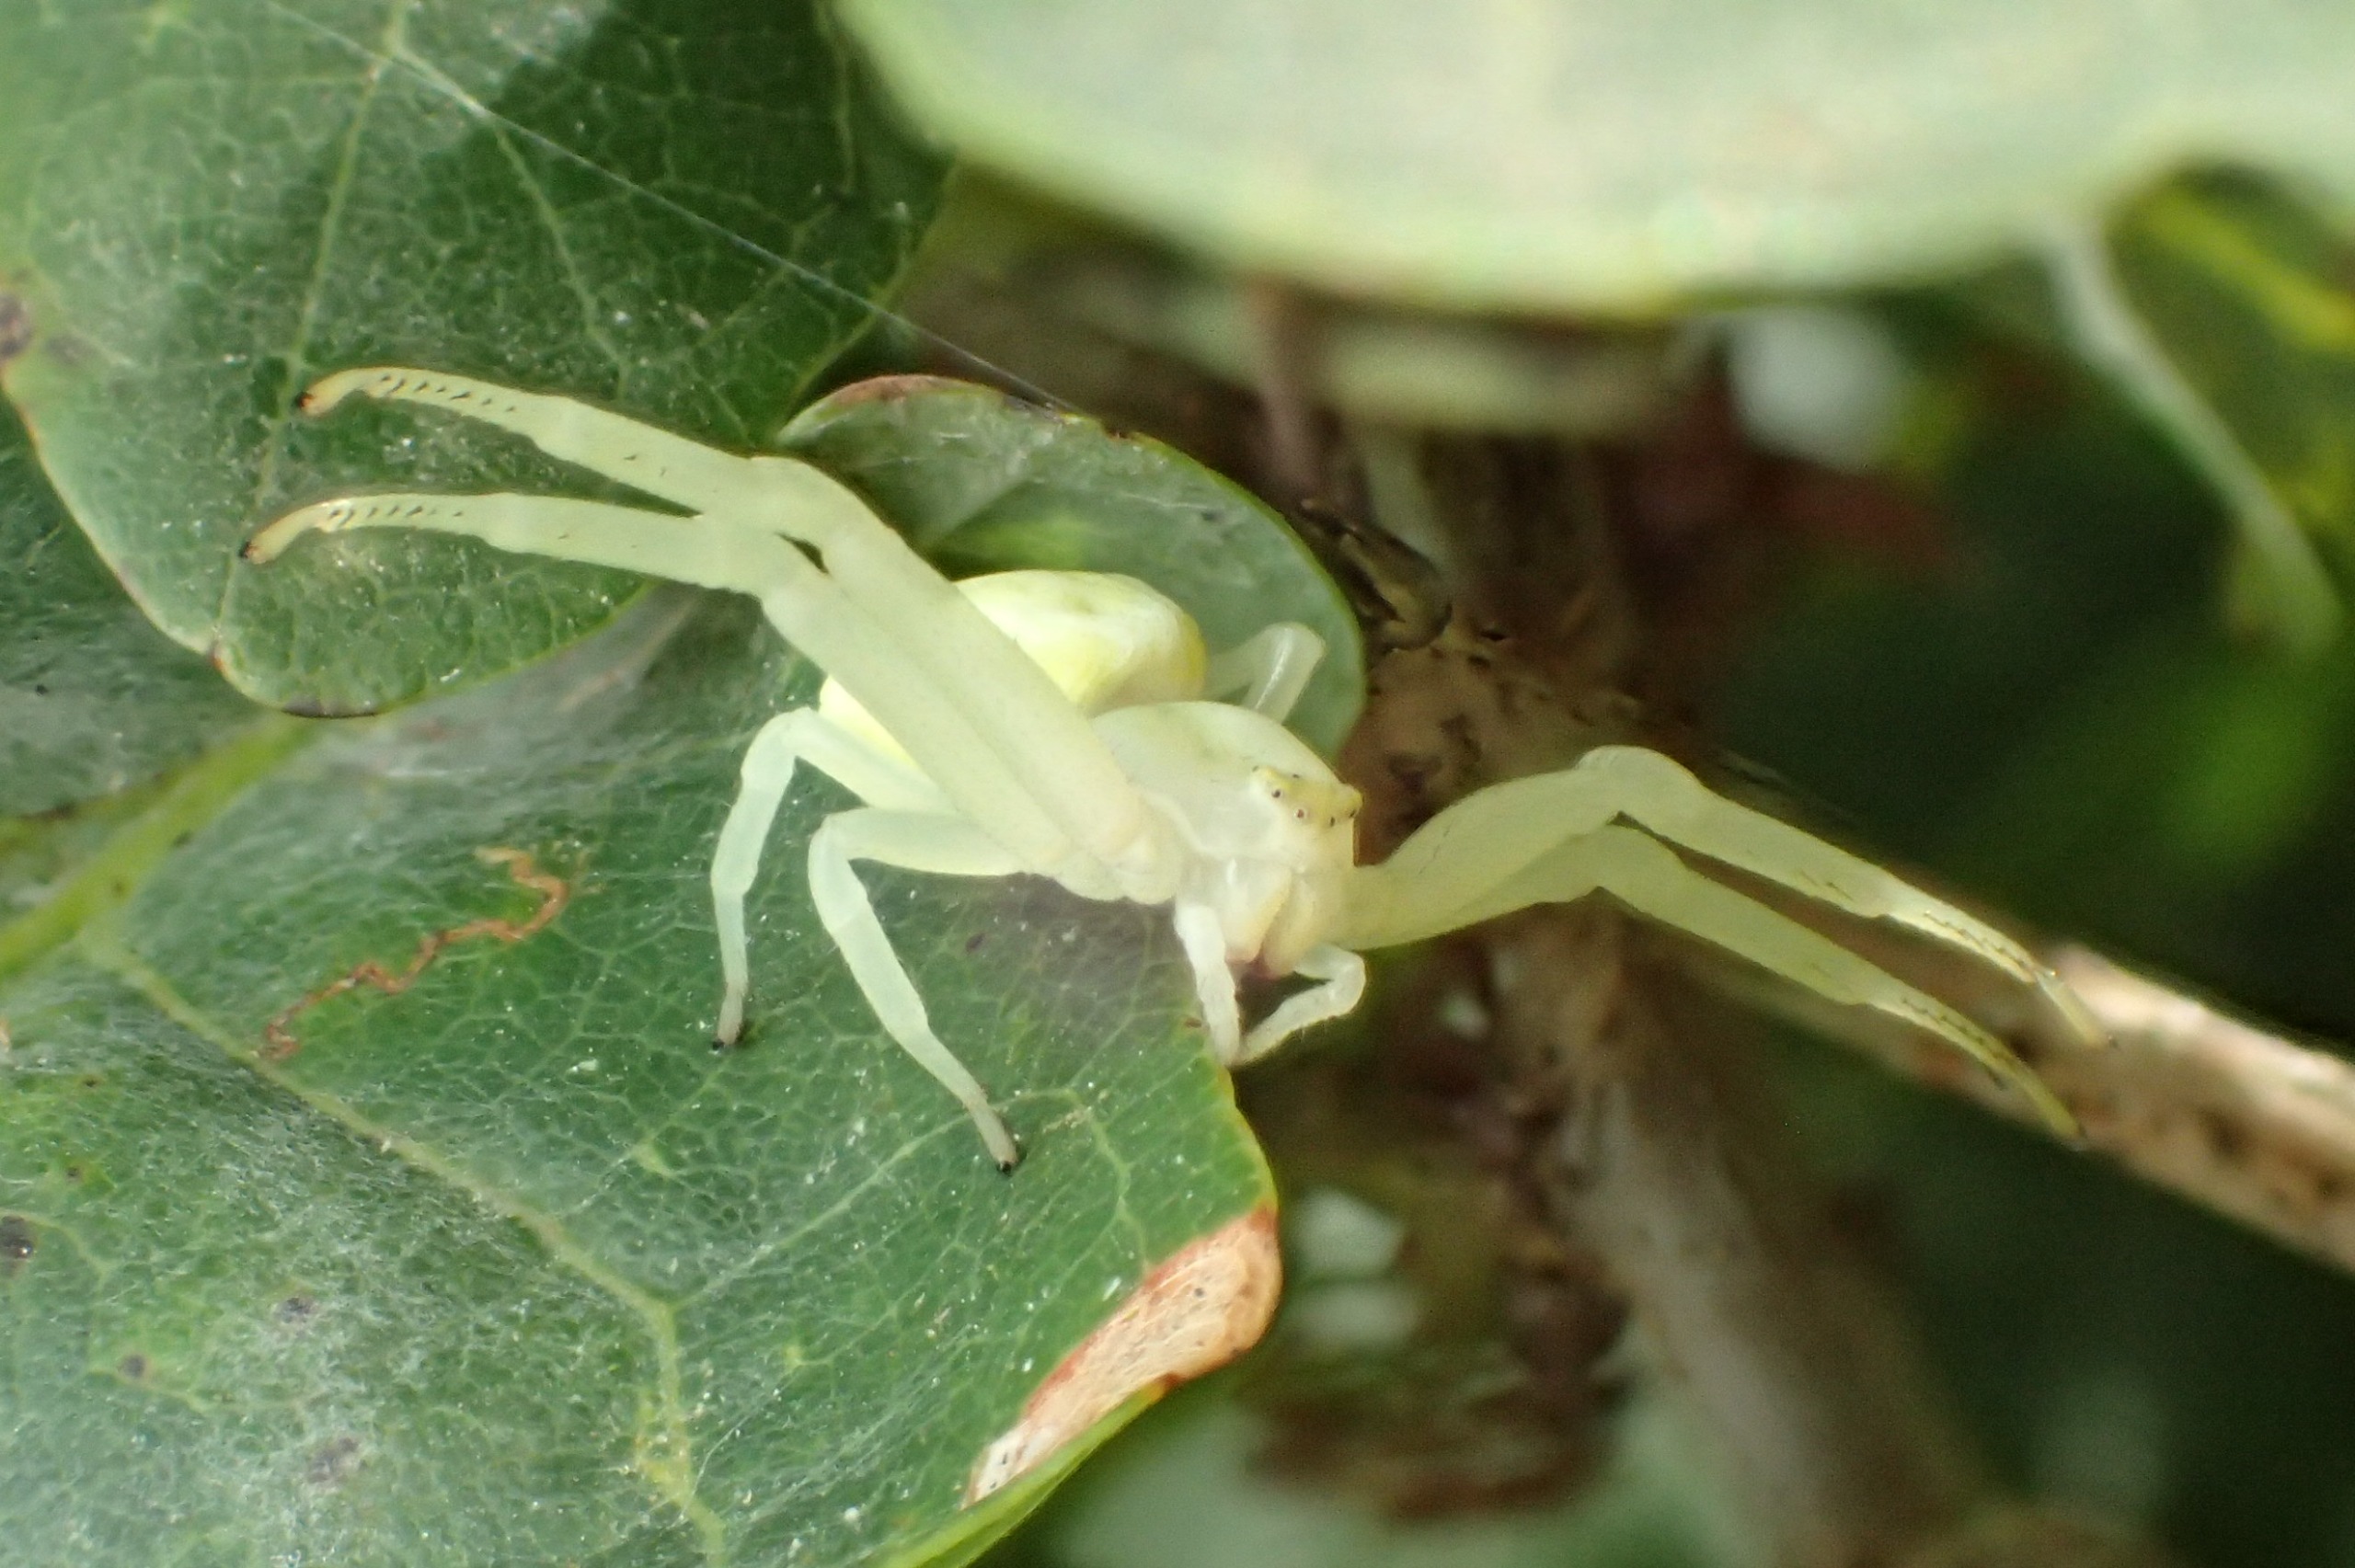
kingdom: Animalia
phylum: Arthropoda
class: Arachnida
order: Araneae
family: Thomisidae
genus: Misumena
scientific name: Misumena vatia
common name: Kamæleonedderkop
